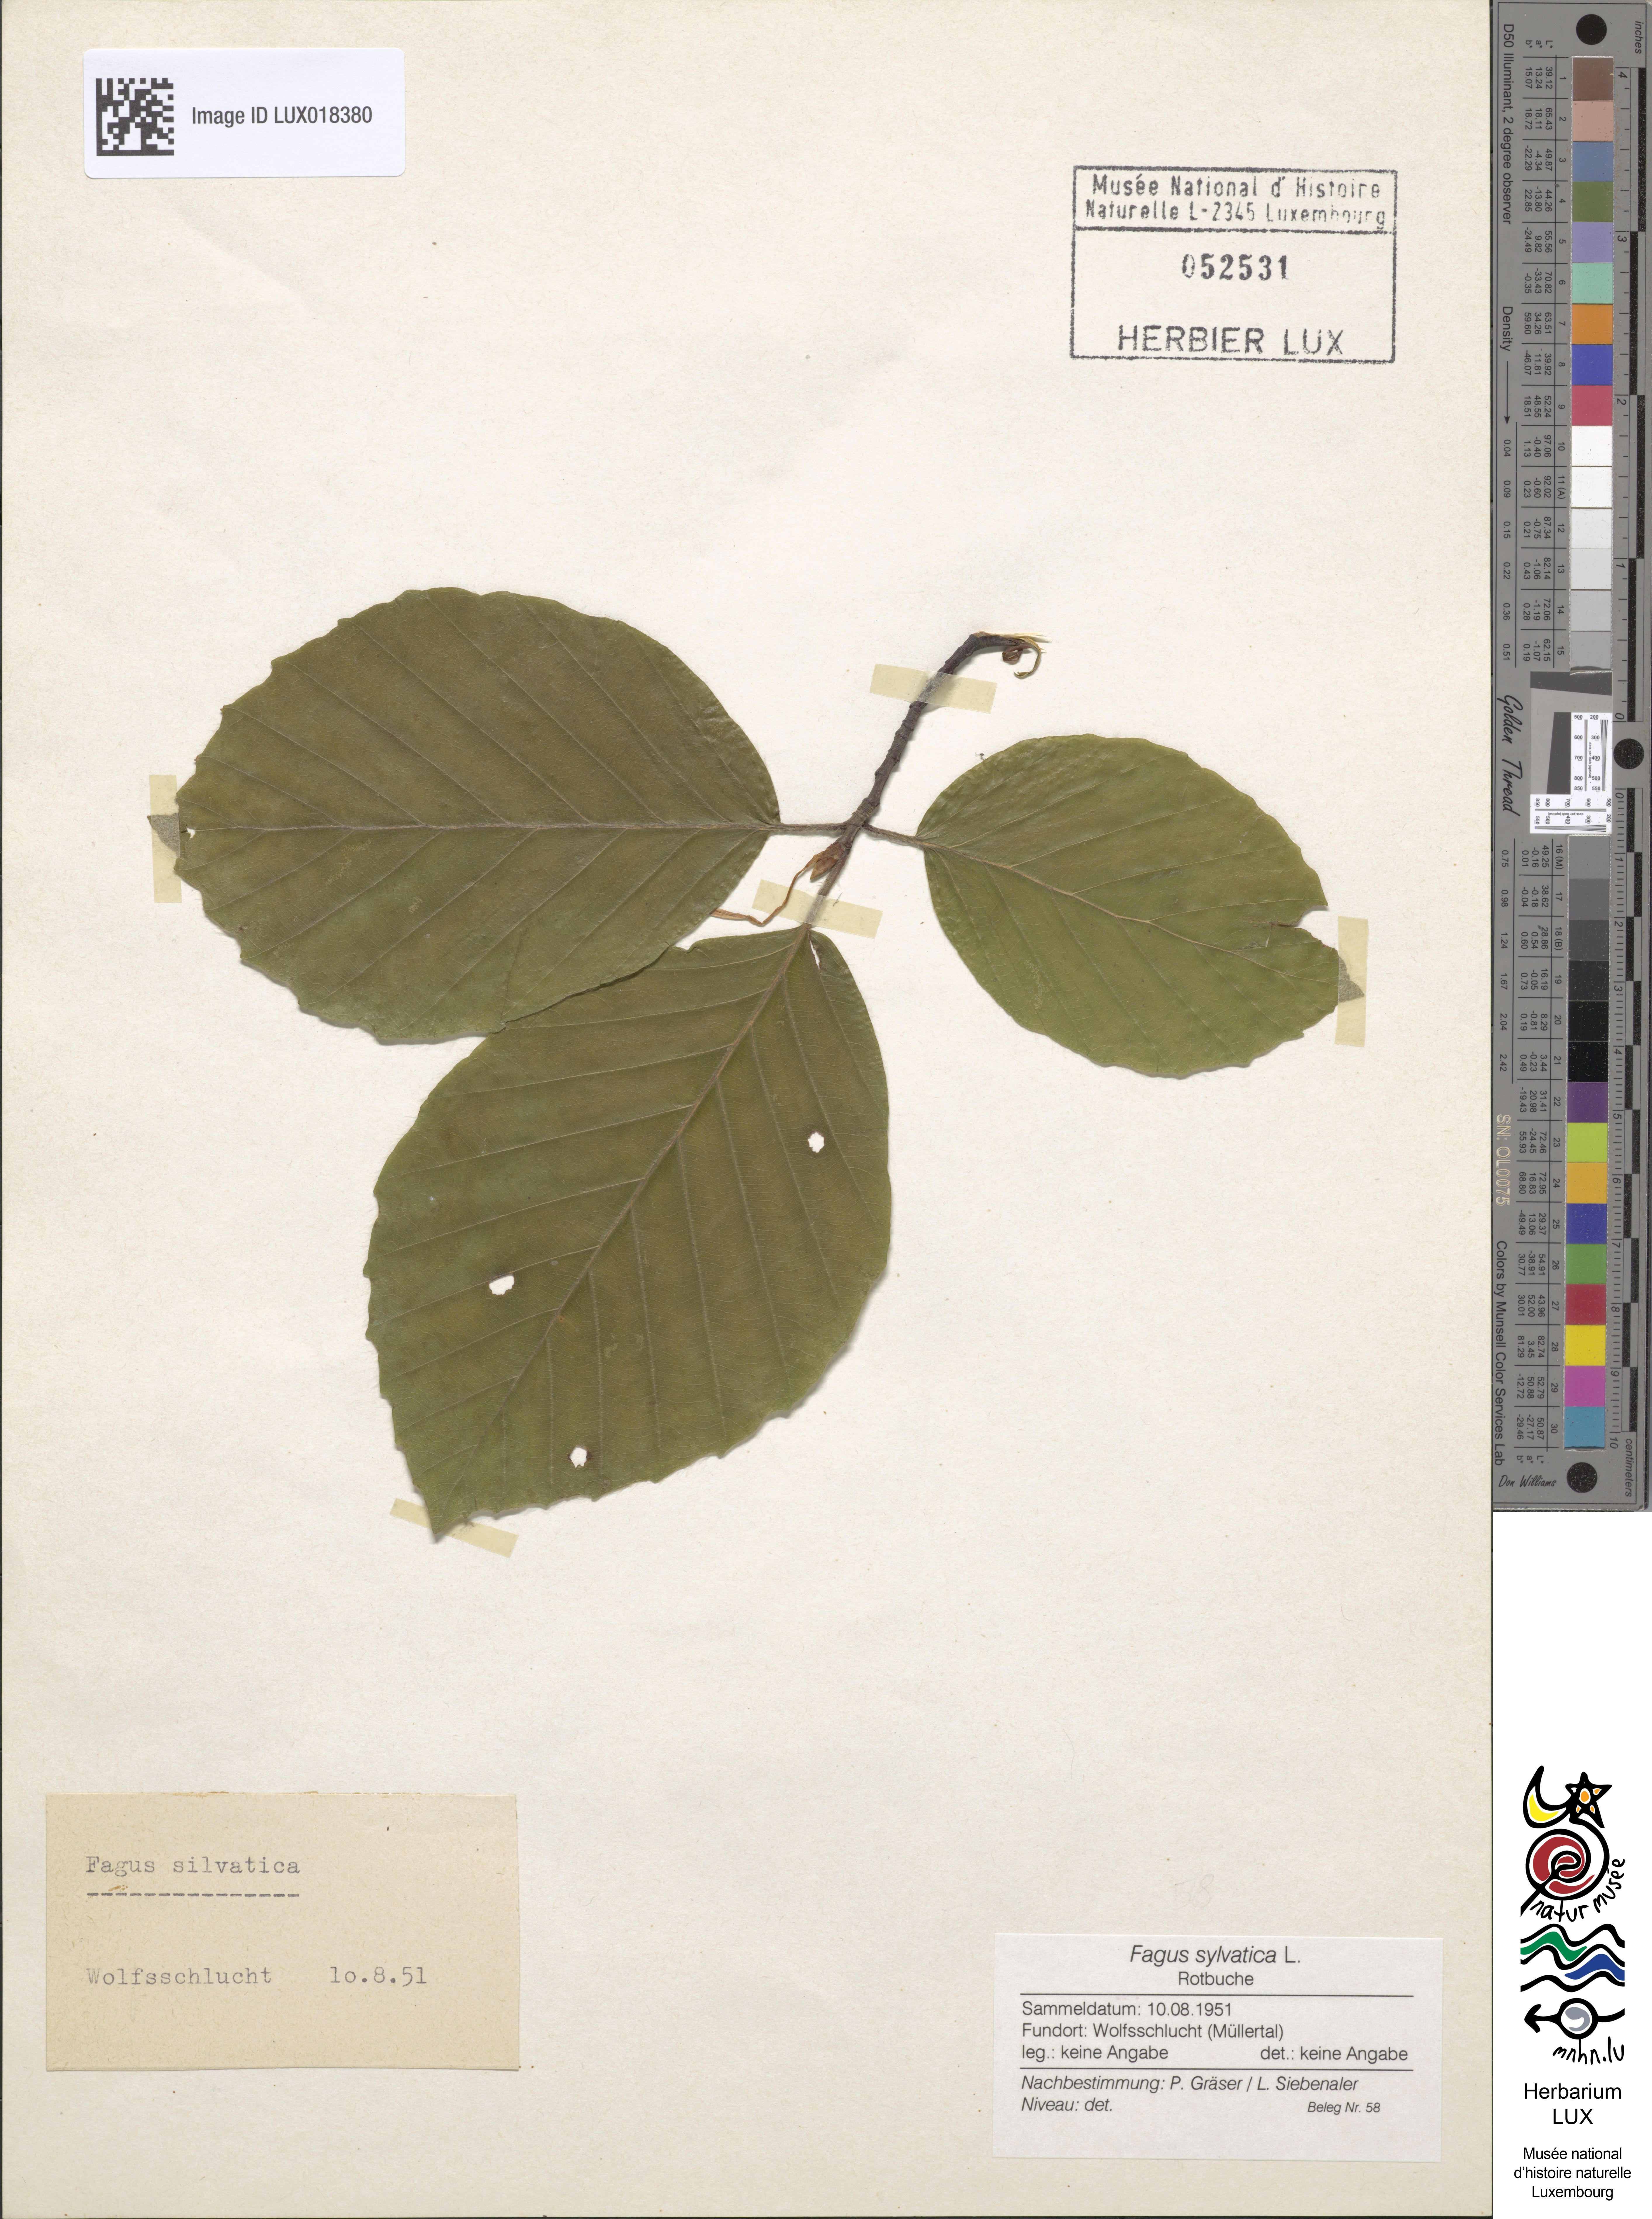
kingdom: Plantae
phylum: Tracheophyta
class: Magnoliopsida
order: Fagales
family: Fagaceae
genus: Fagus
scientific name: Fagus sylvatica
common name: Beech
